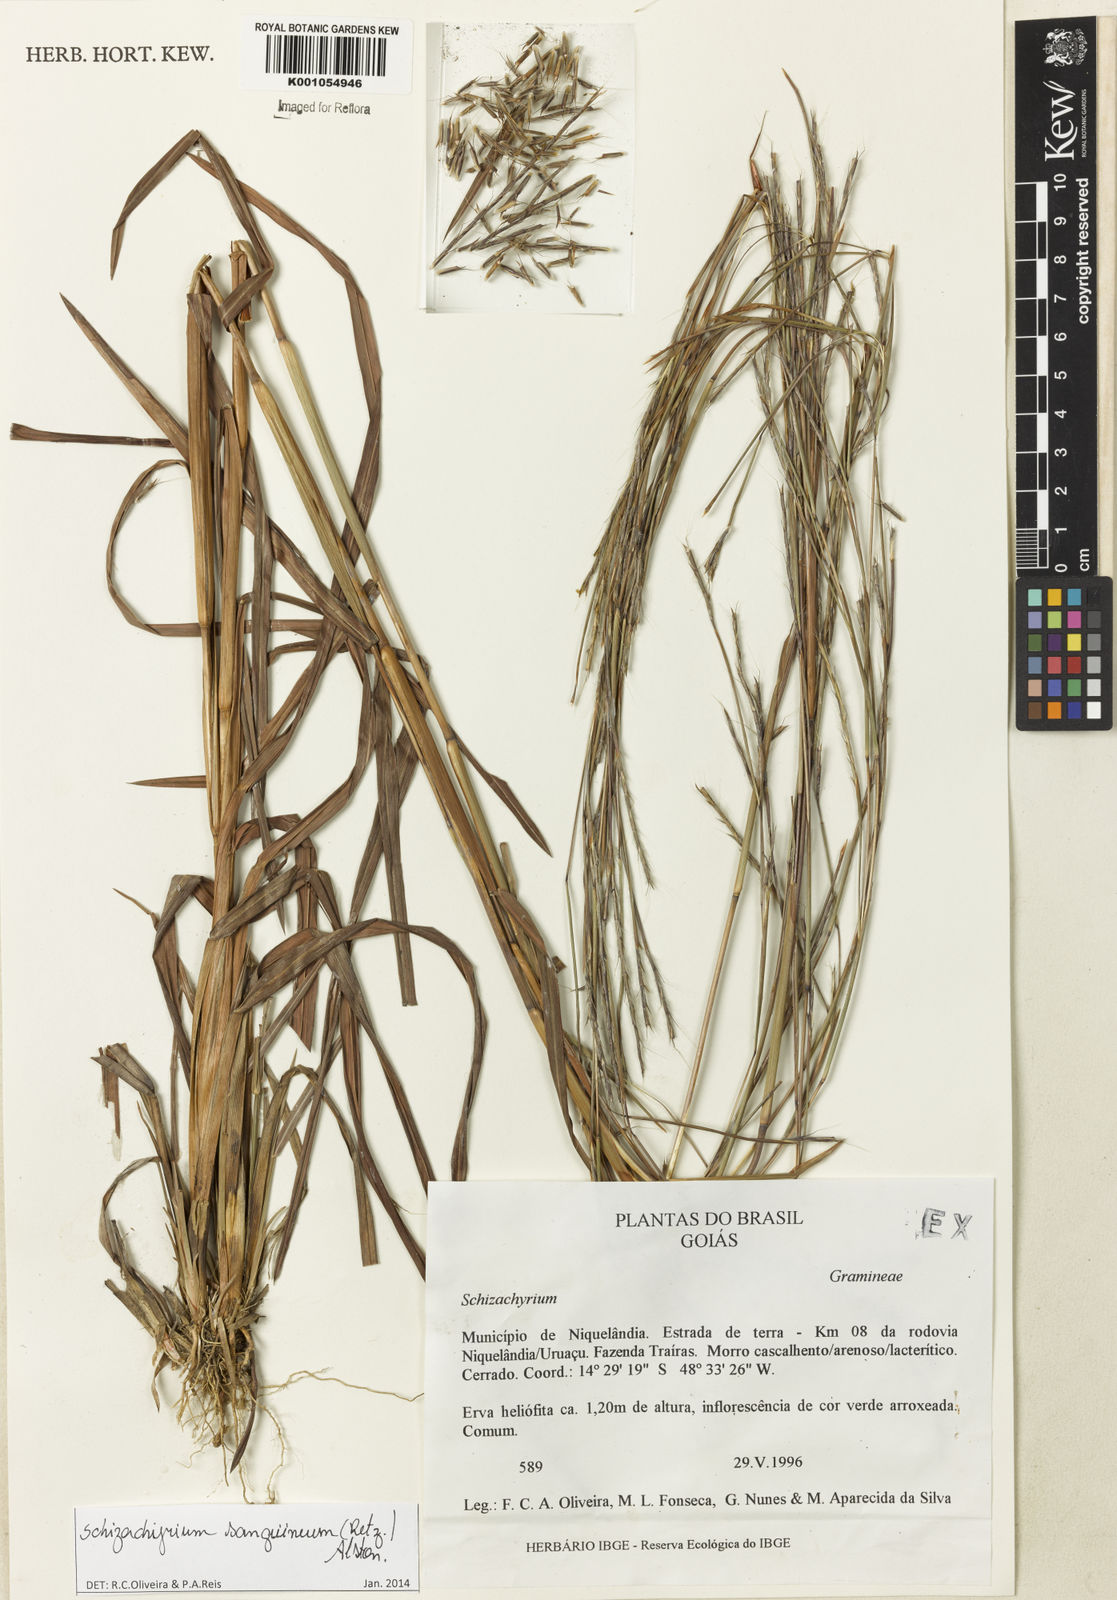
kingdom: Plantae
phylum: Tracheophyta
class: Liliopsida
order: Poales
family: Poaceae
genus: Schizachyrium
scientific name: Schizachyrium sanguineum
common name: Crimson bluestem
